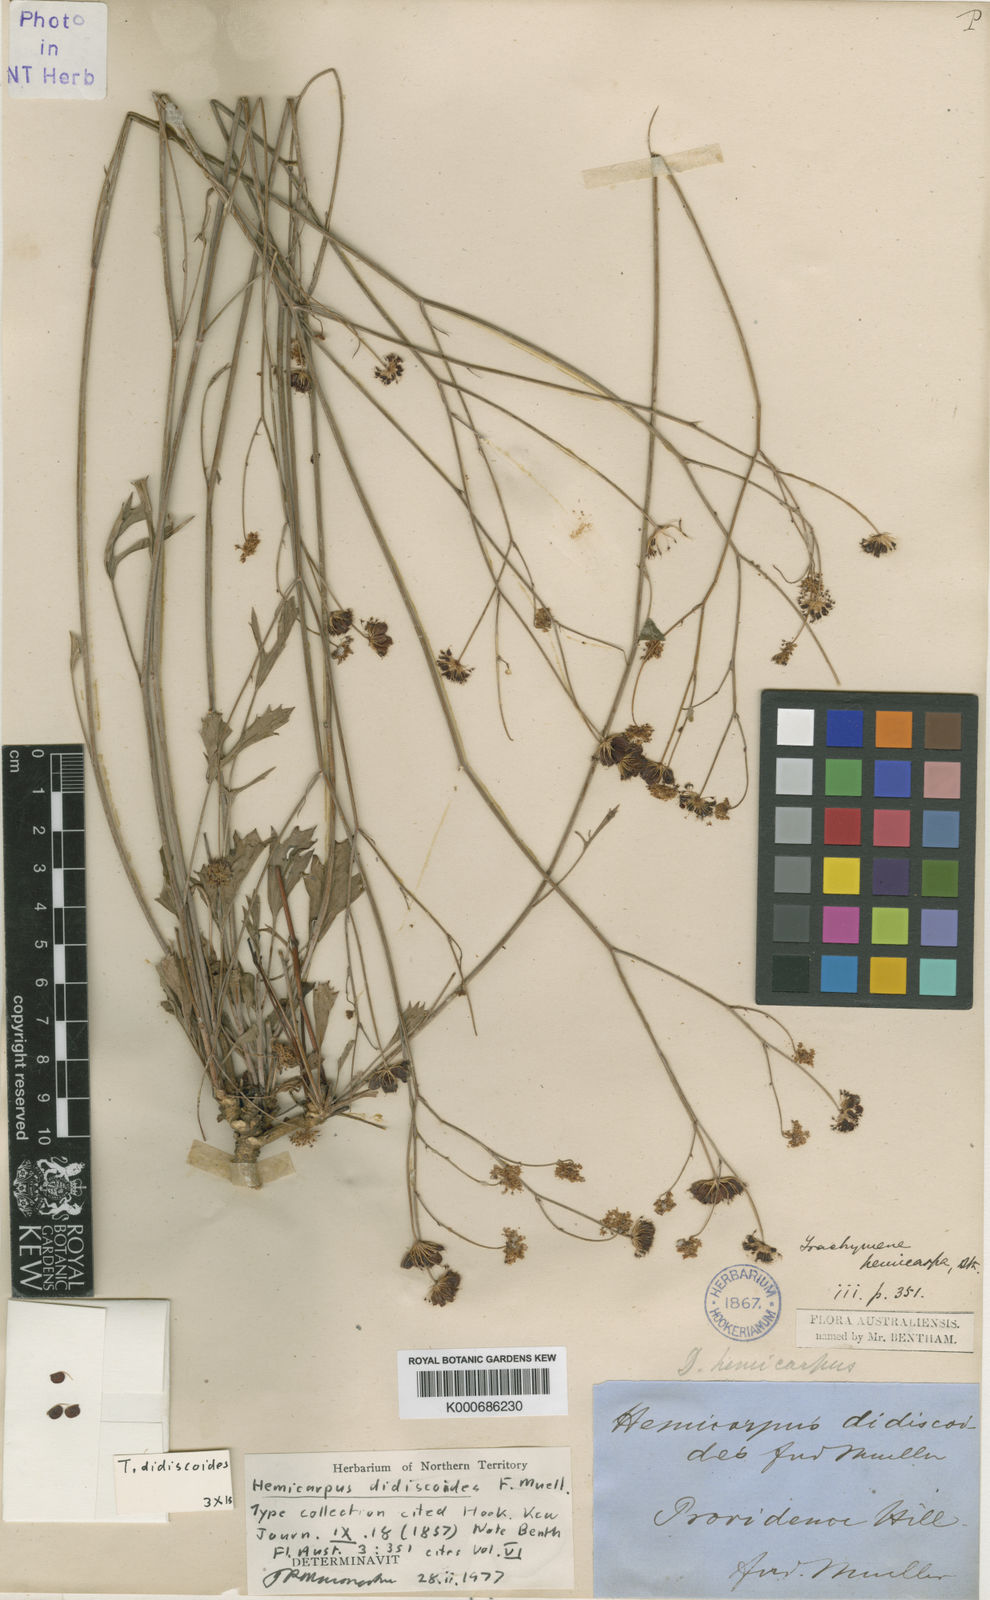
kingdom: Plantae
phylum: Tracheophyta
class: Magnoliopsida
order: Apiales
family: Araliaceae
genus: Trachymene
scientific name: Trachymene didiscoides
